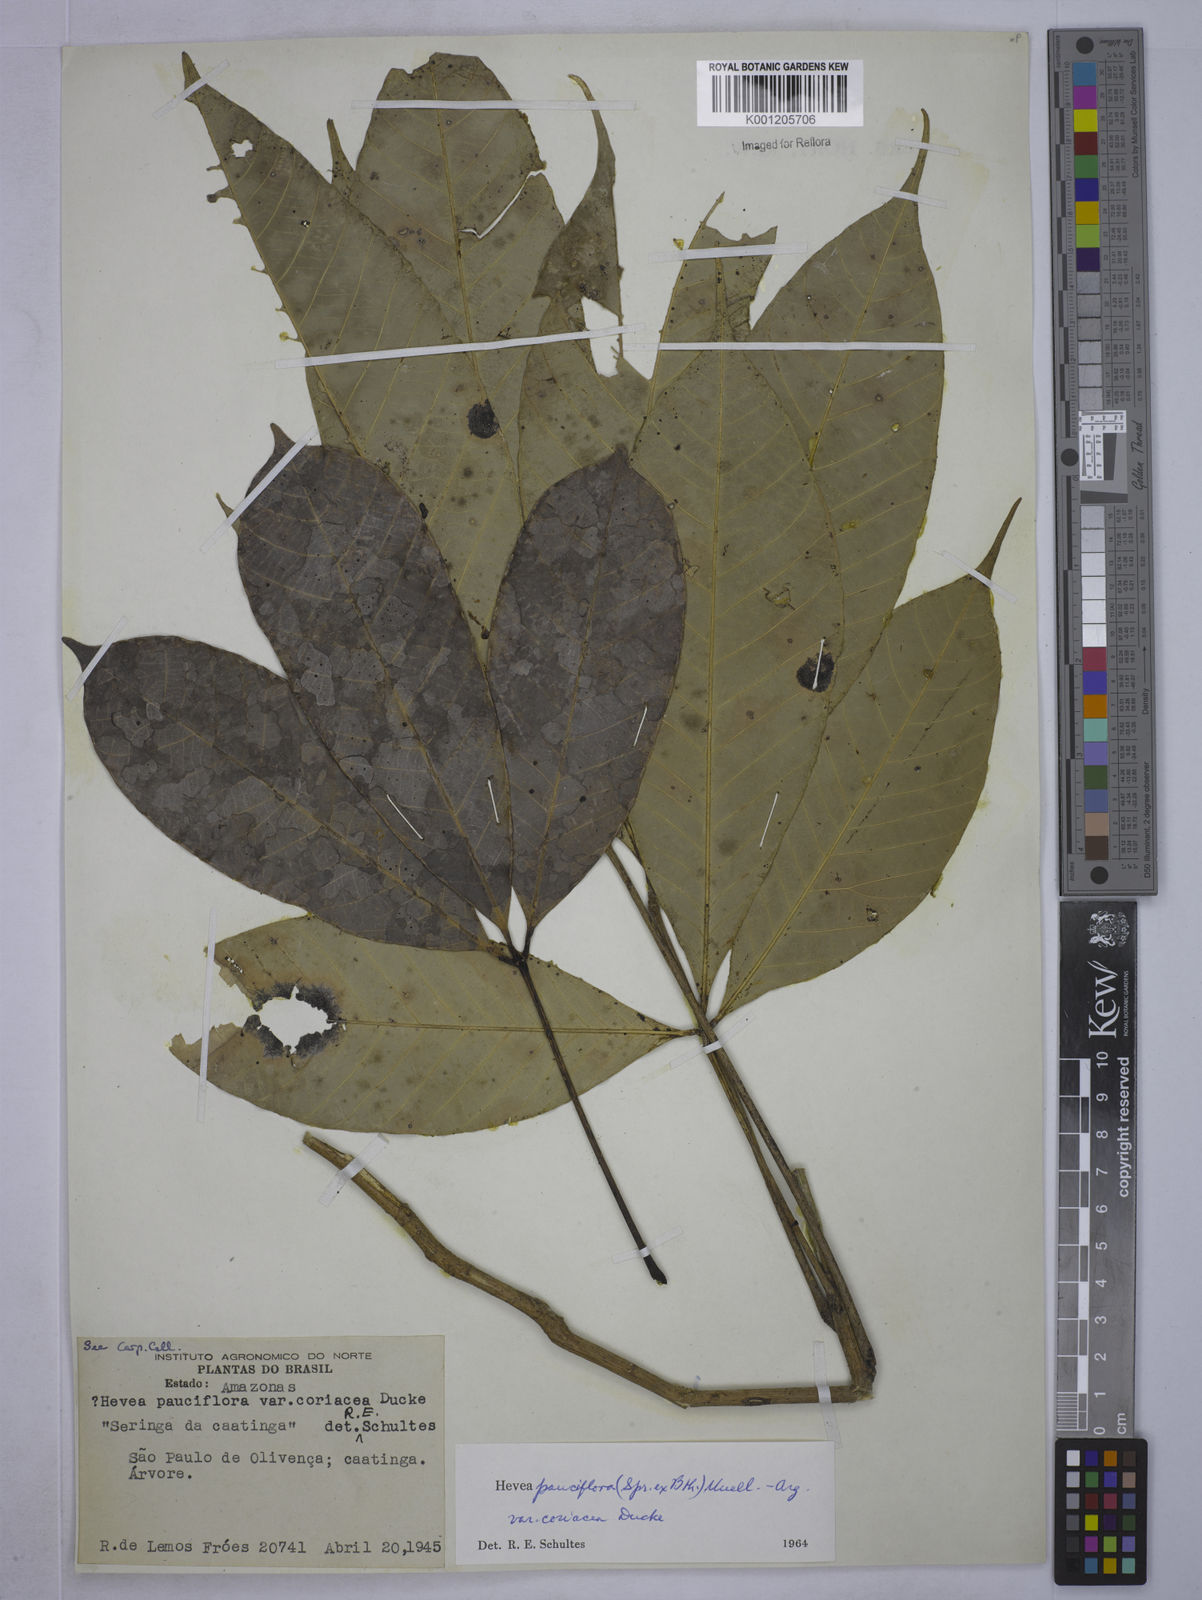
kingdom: Plantae
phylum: Tracheophyta
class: Magnoliopsida
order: Malpighiales
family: Euphorbiaceae
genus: Hevea
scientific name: Hevea pauciflora
